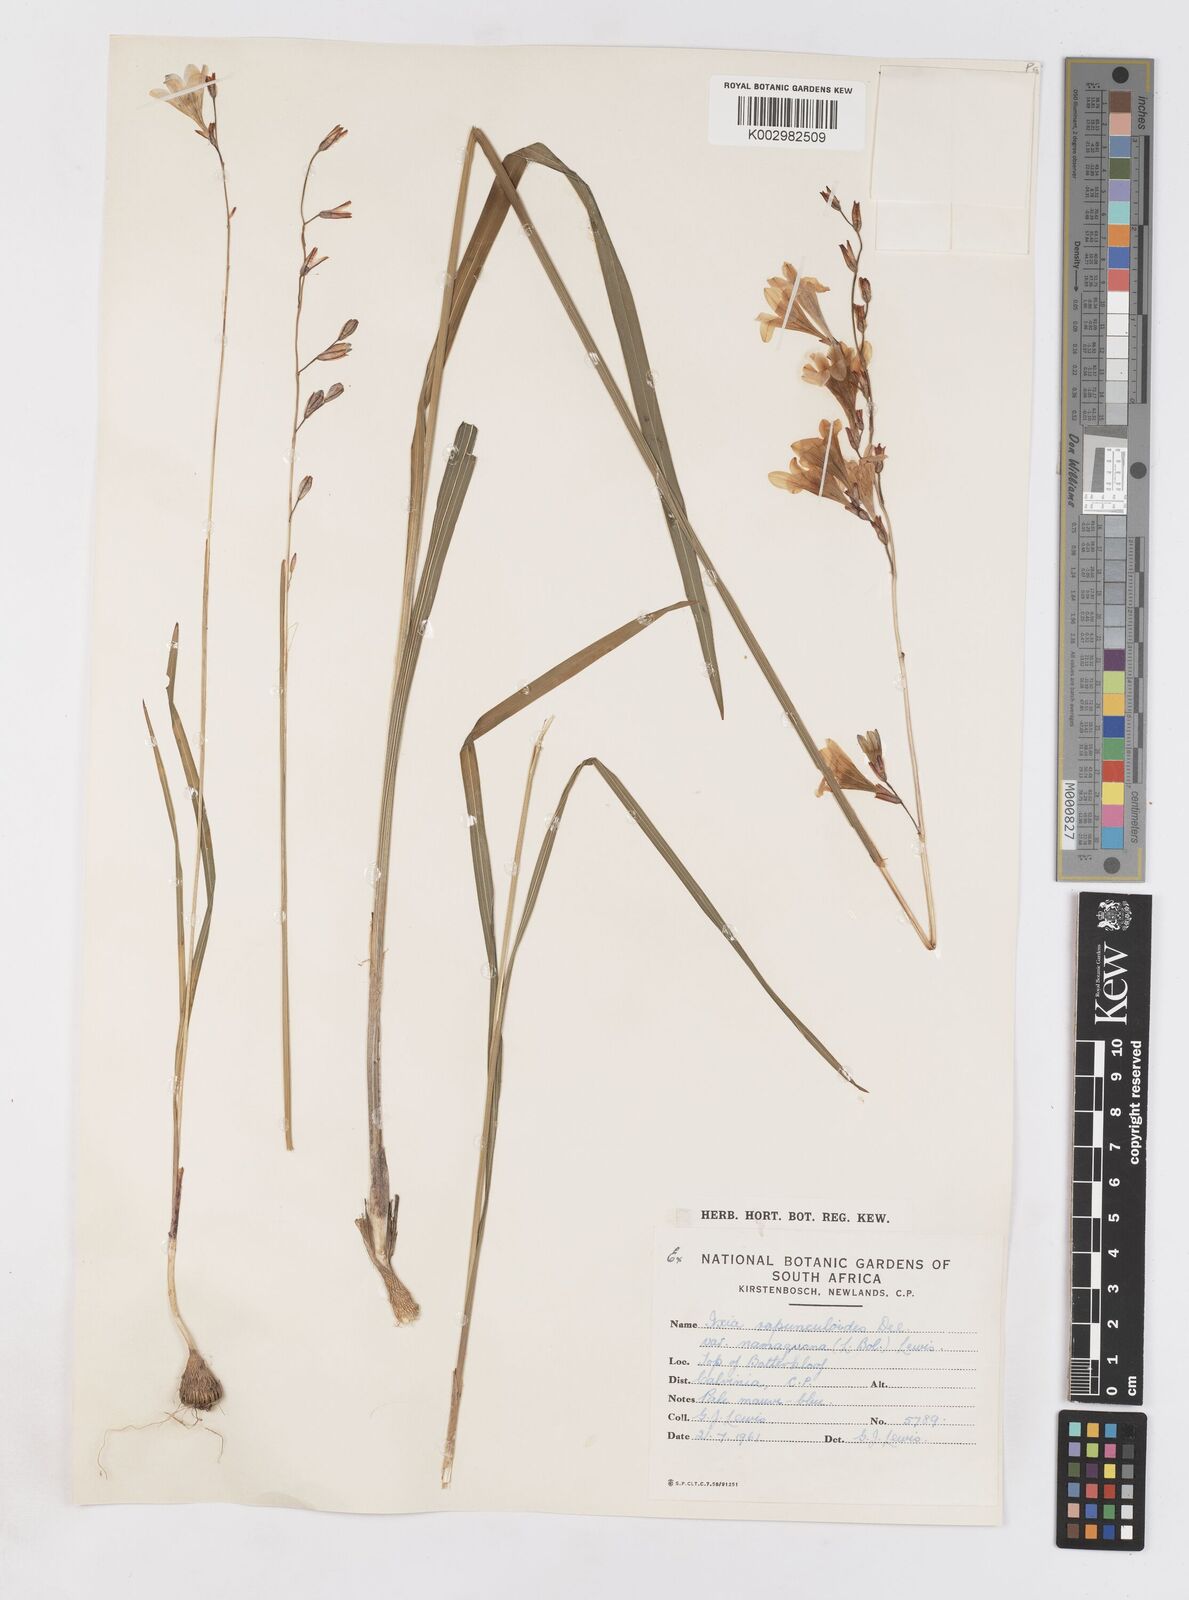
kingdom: Plantae
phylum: Tracheophyta
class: Liliopsida
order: Asparagales
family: Iridaceae
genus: Ixia
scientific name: Ixia rapunculoides
